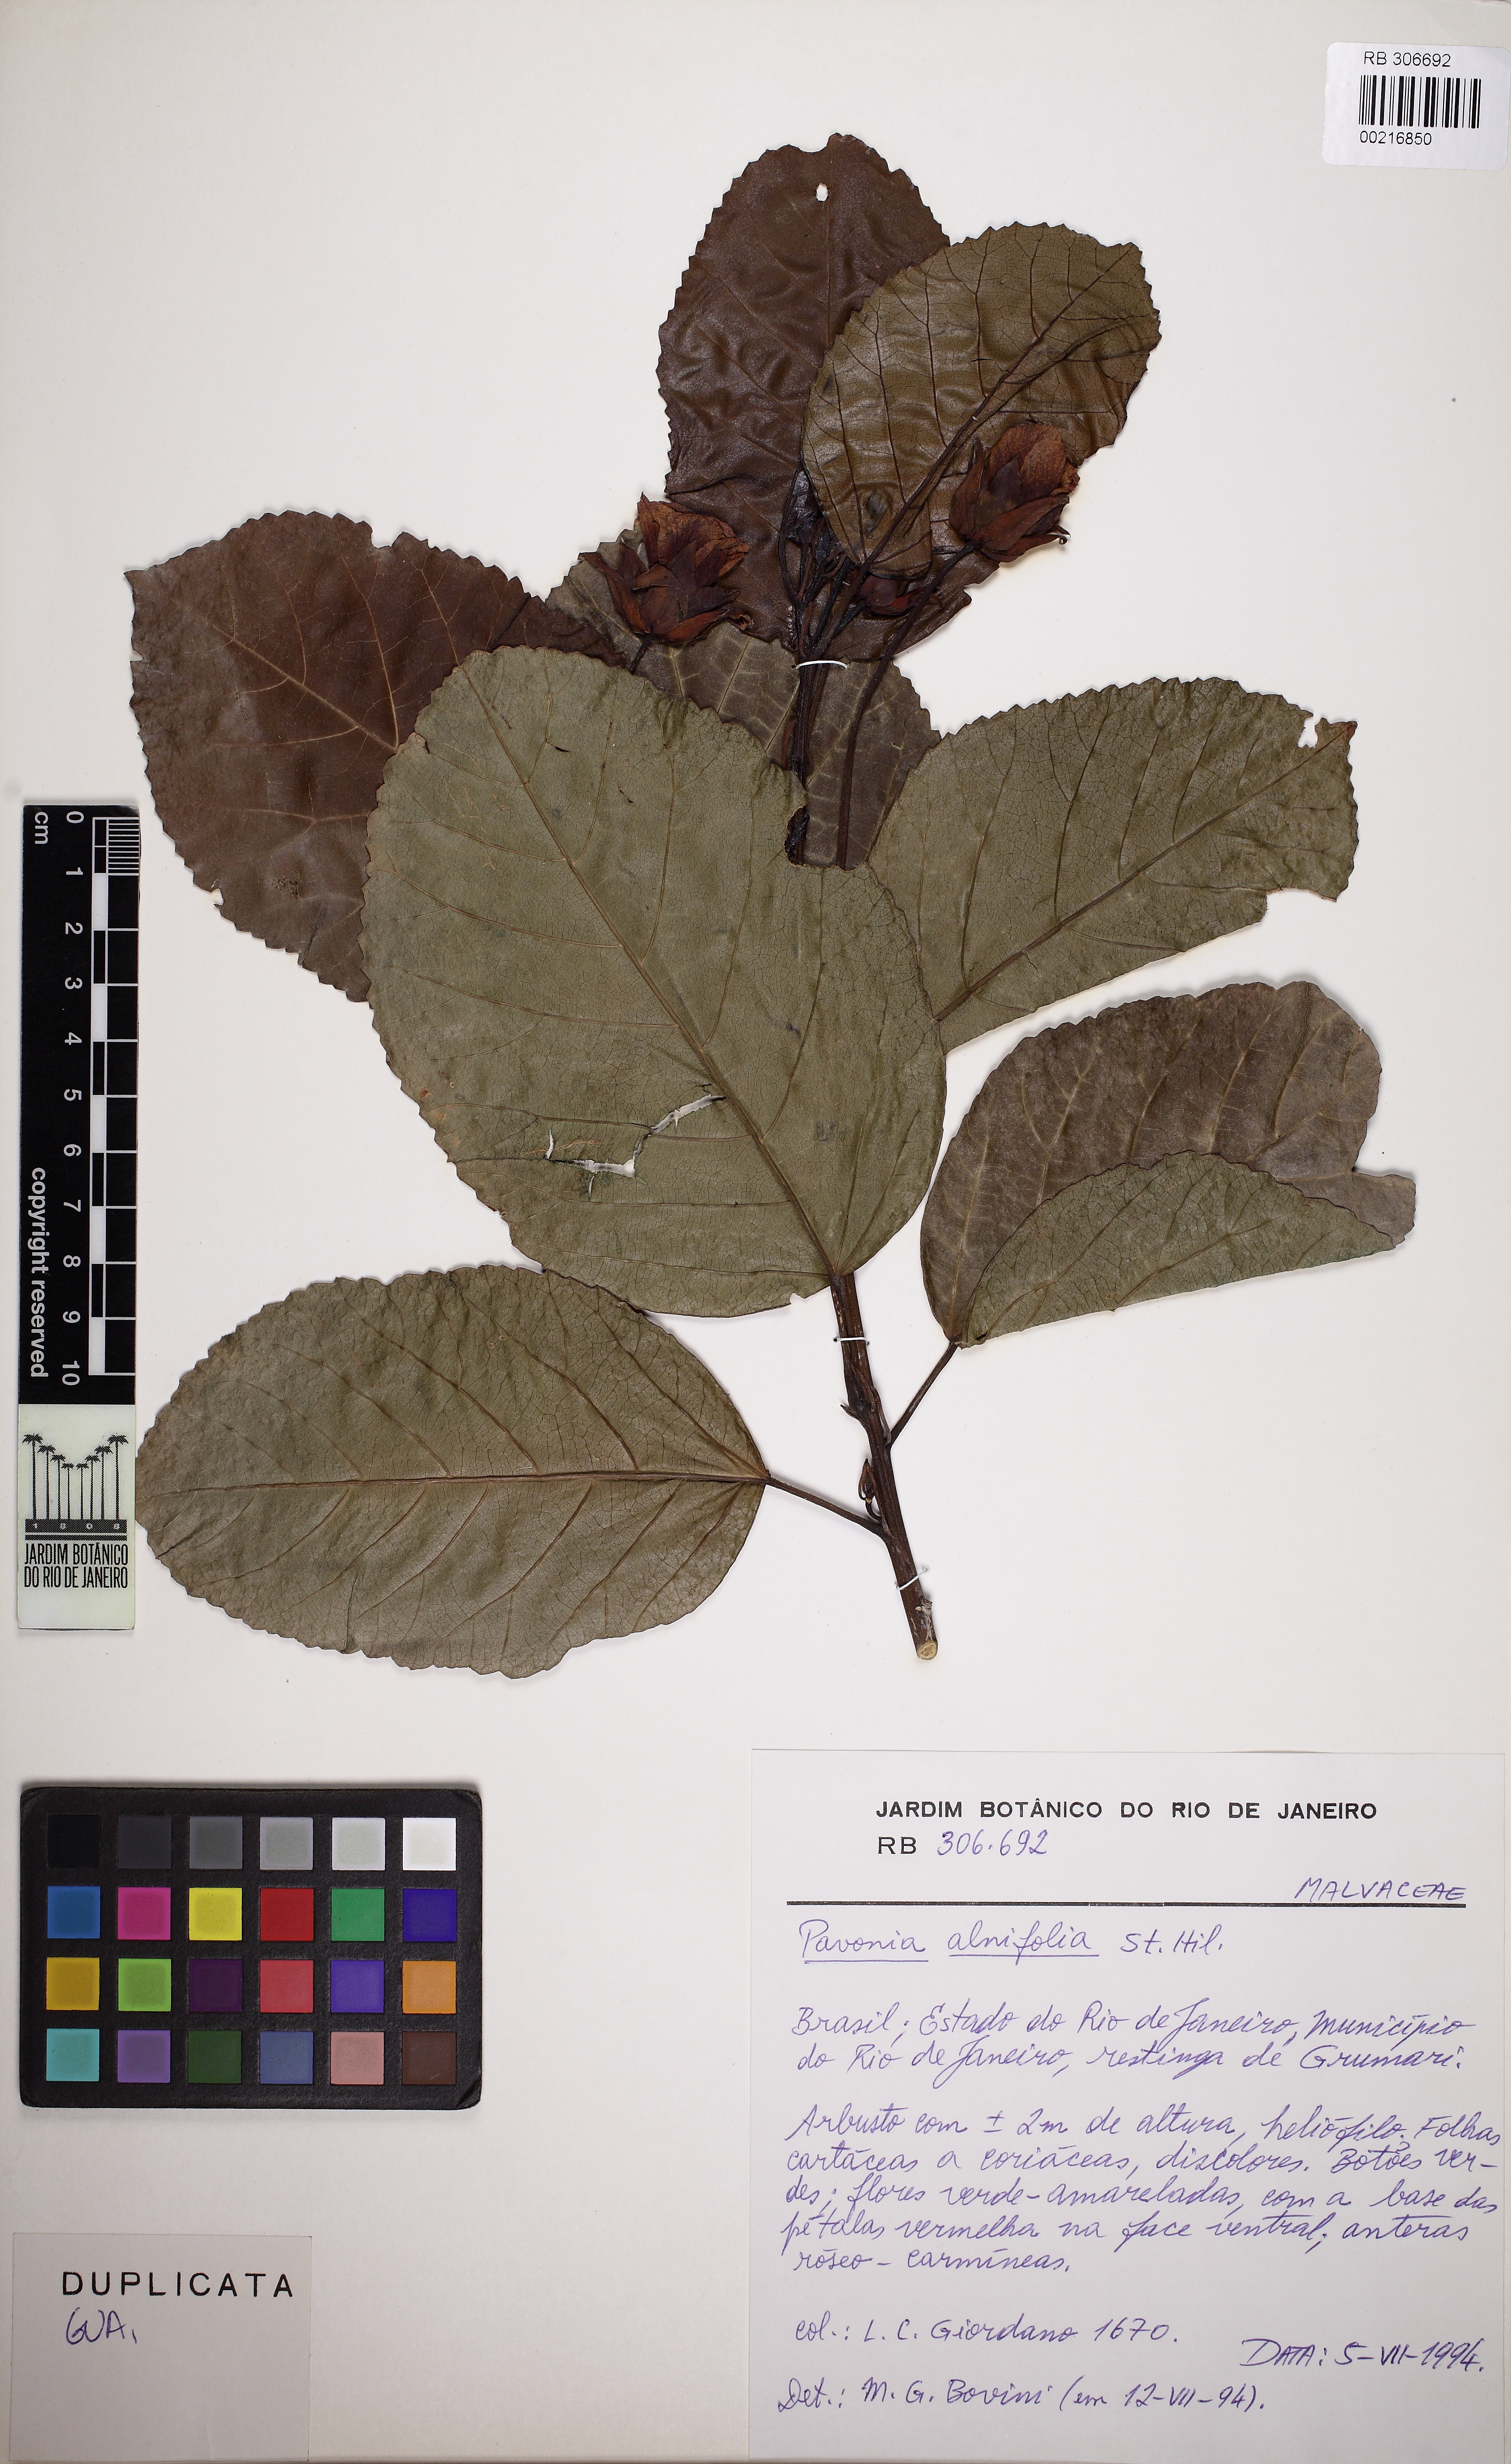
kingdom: Plantae
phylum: Tracheophyta
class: Magnoliopsida
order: Malvales
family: Malvaceae
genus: Pavonia
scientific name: Pavonia alnifolia
